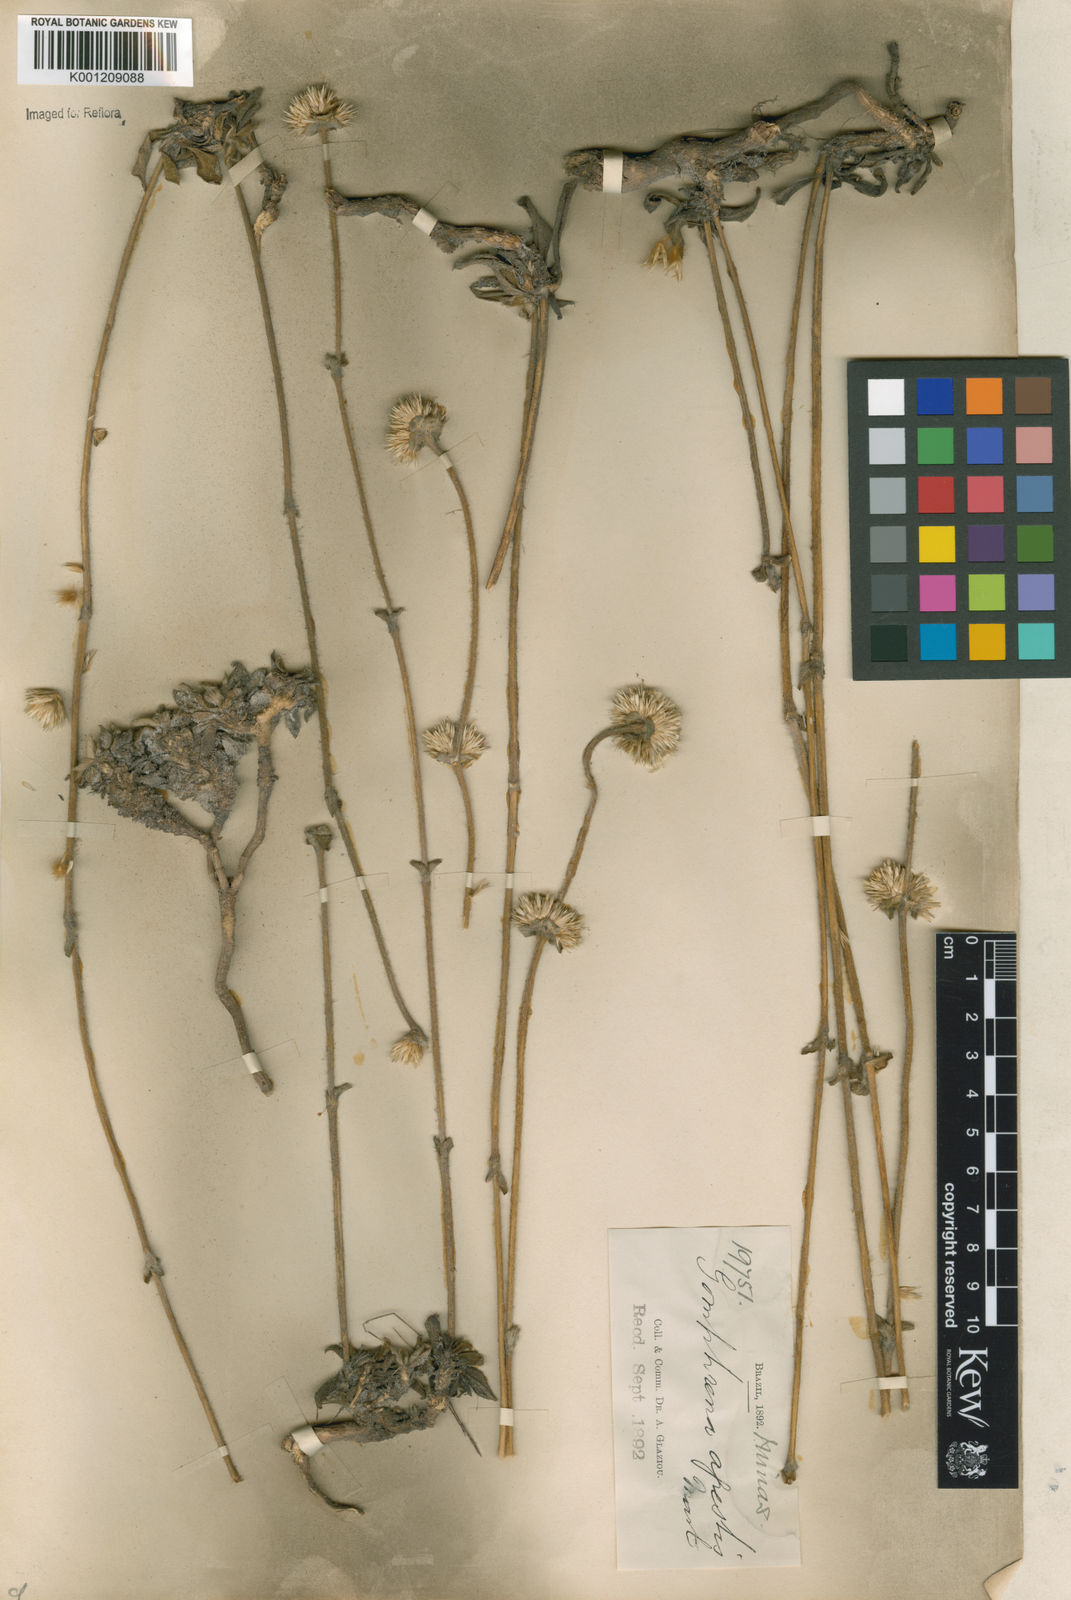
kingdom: Plantae
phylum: Tracheophyta
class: Magnoliopsida
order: Caryophyllales
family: Amaranthaceae
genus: Gomphrena
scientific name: Gomphrena agrestis
